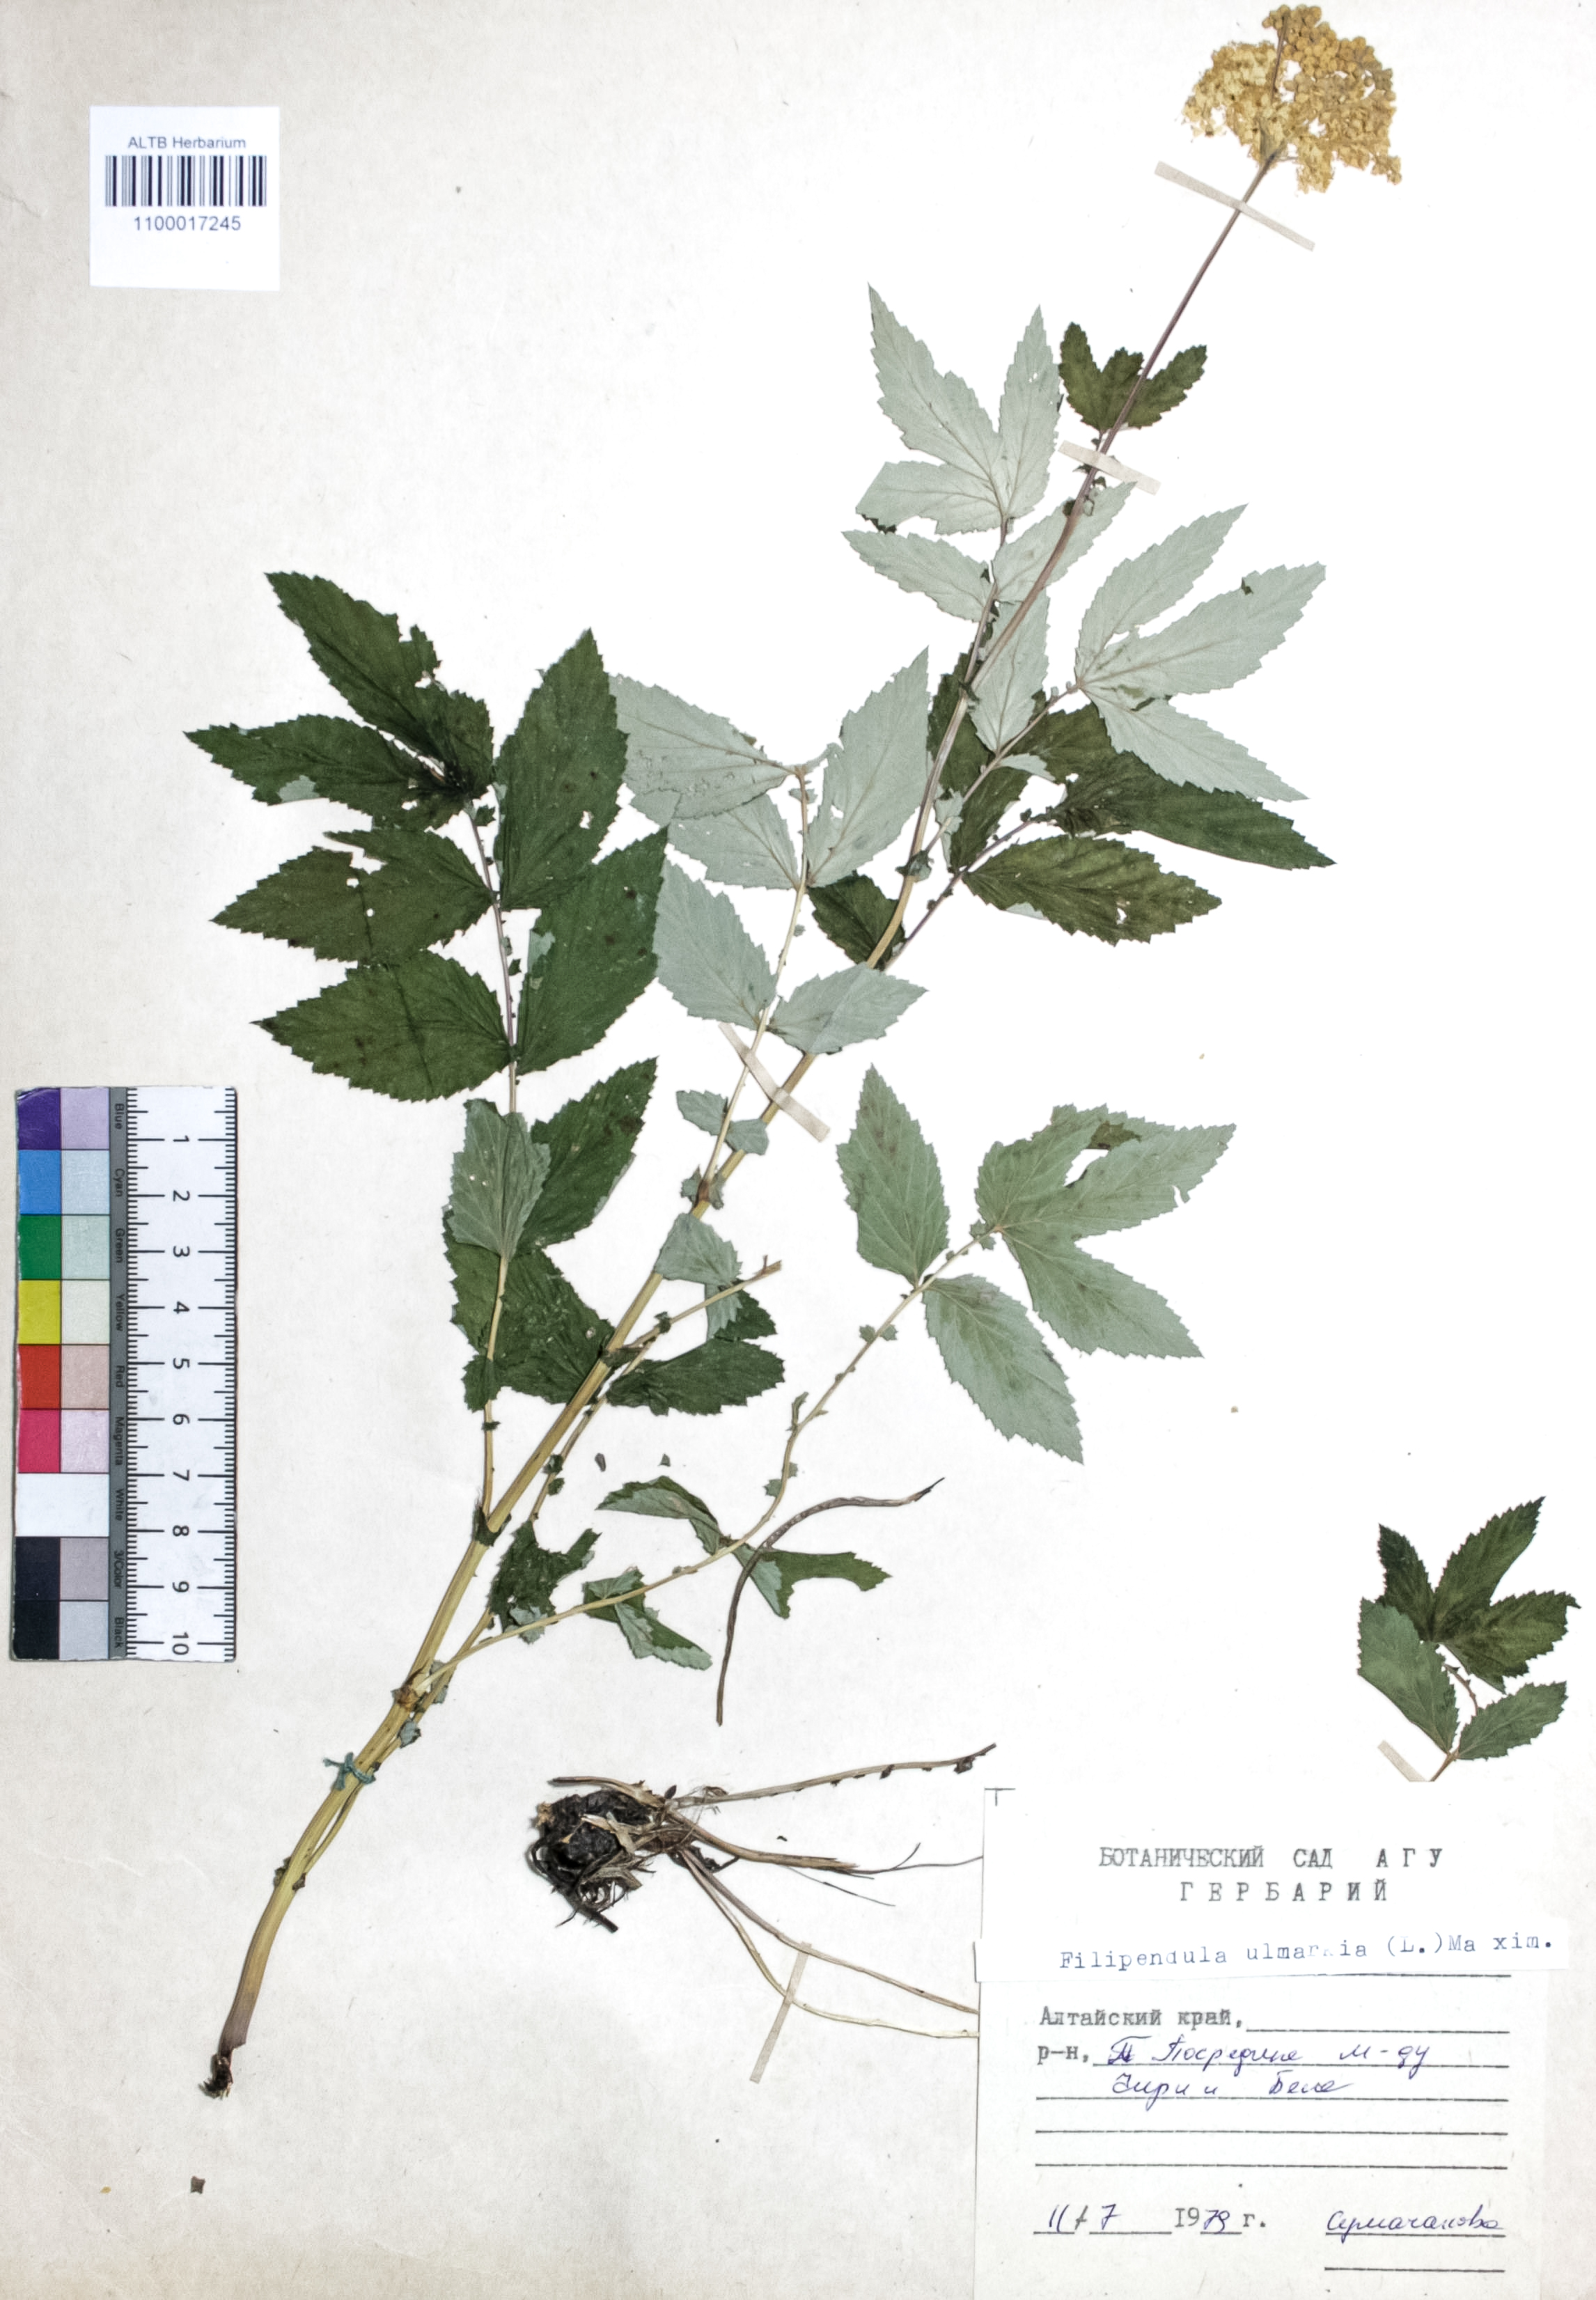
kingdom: Plantae
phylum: Tracheophyta
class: Magnoliopsida
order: Rosales
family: Rosaceae
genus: Filipendula
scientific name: Filipendula ulmaria
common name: Meadowsweet
